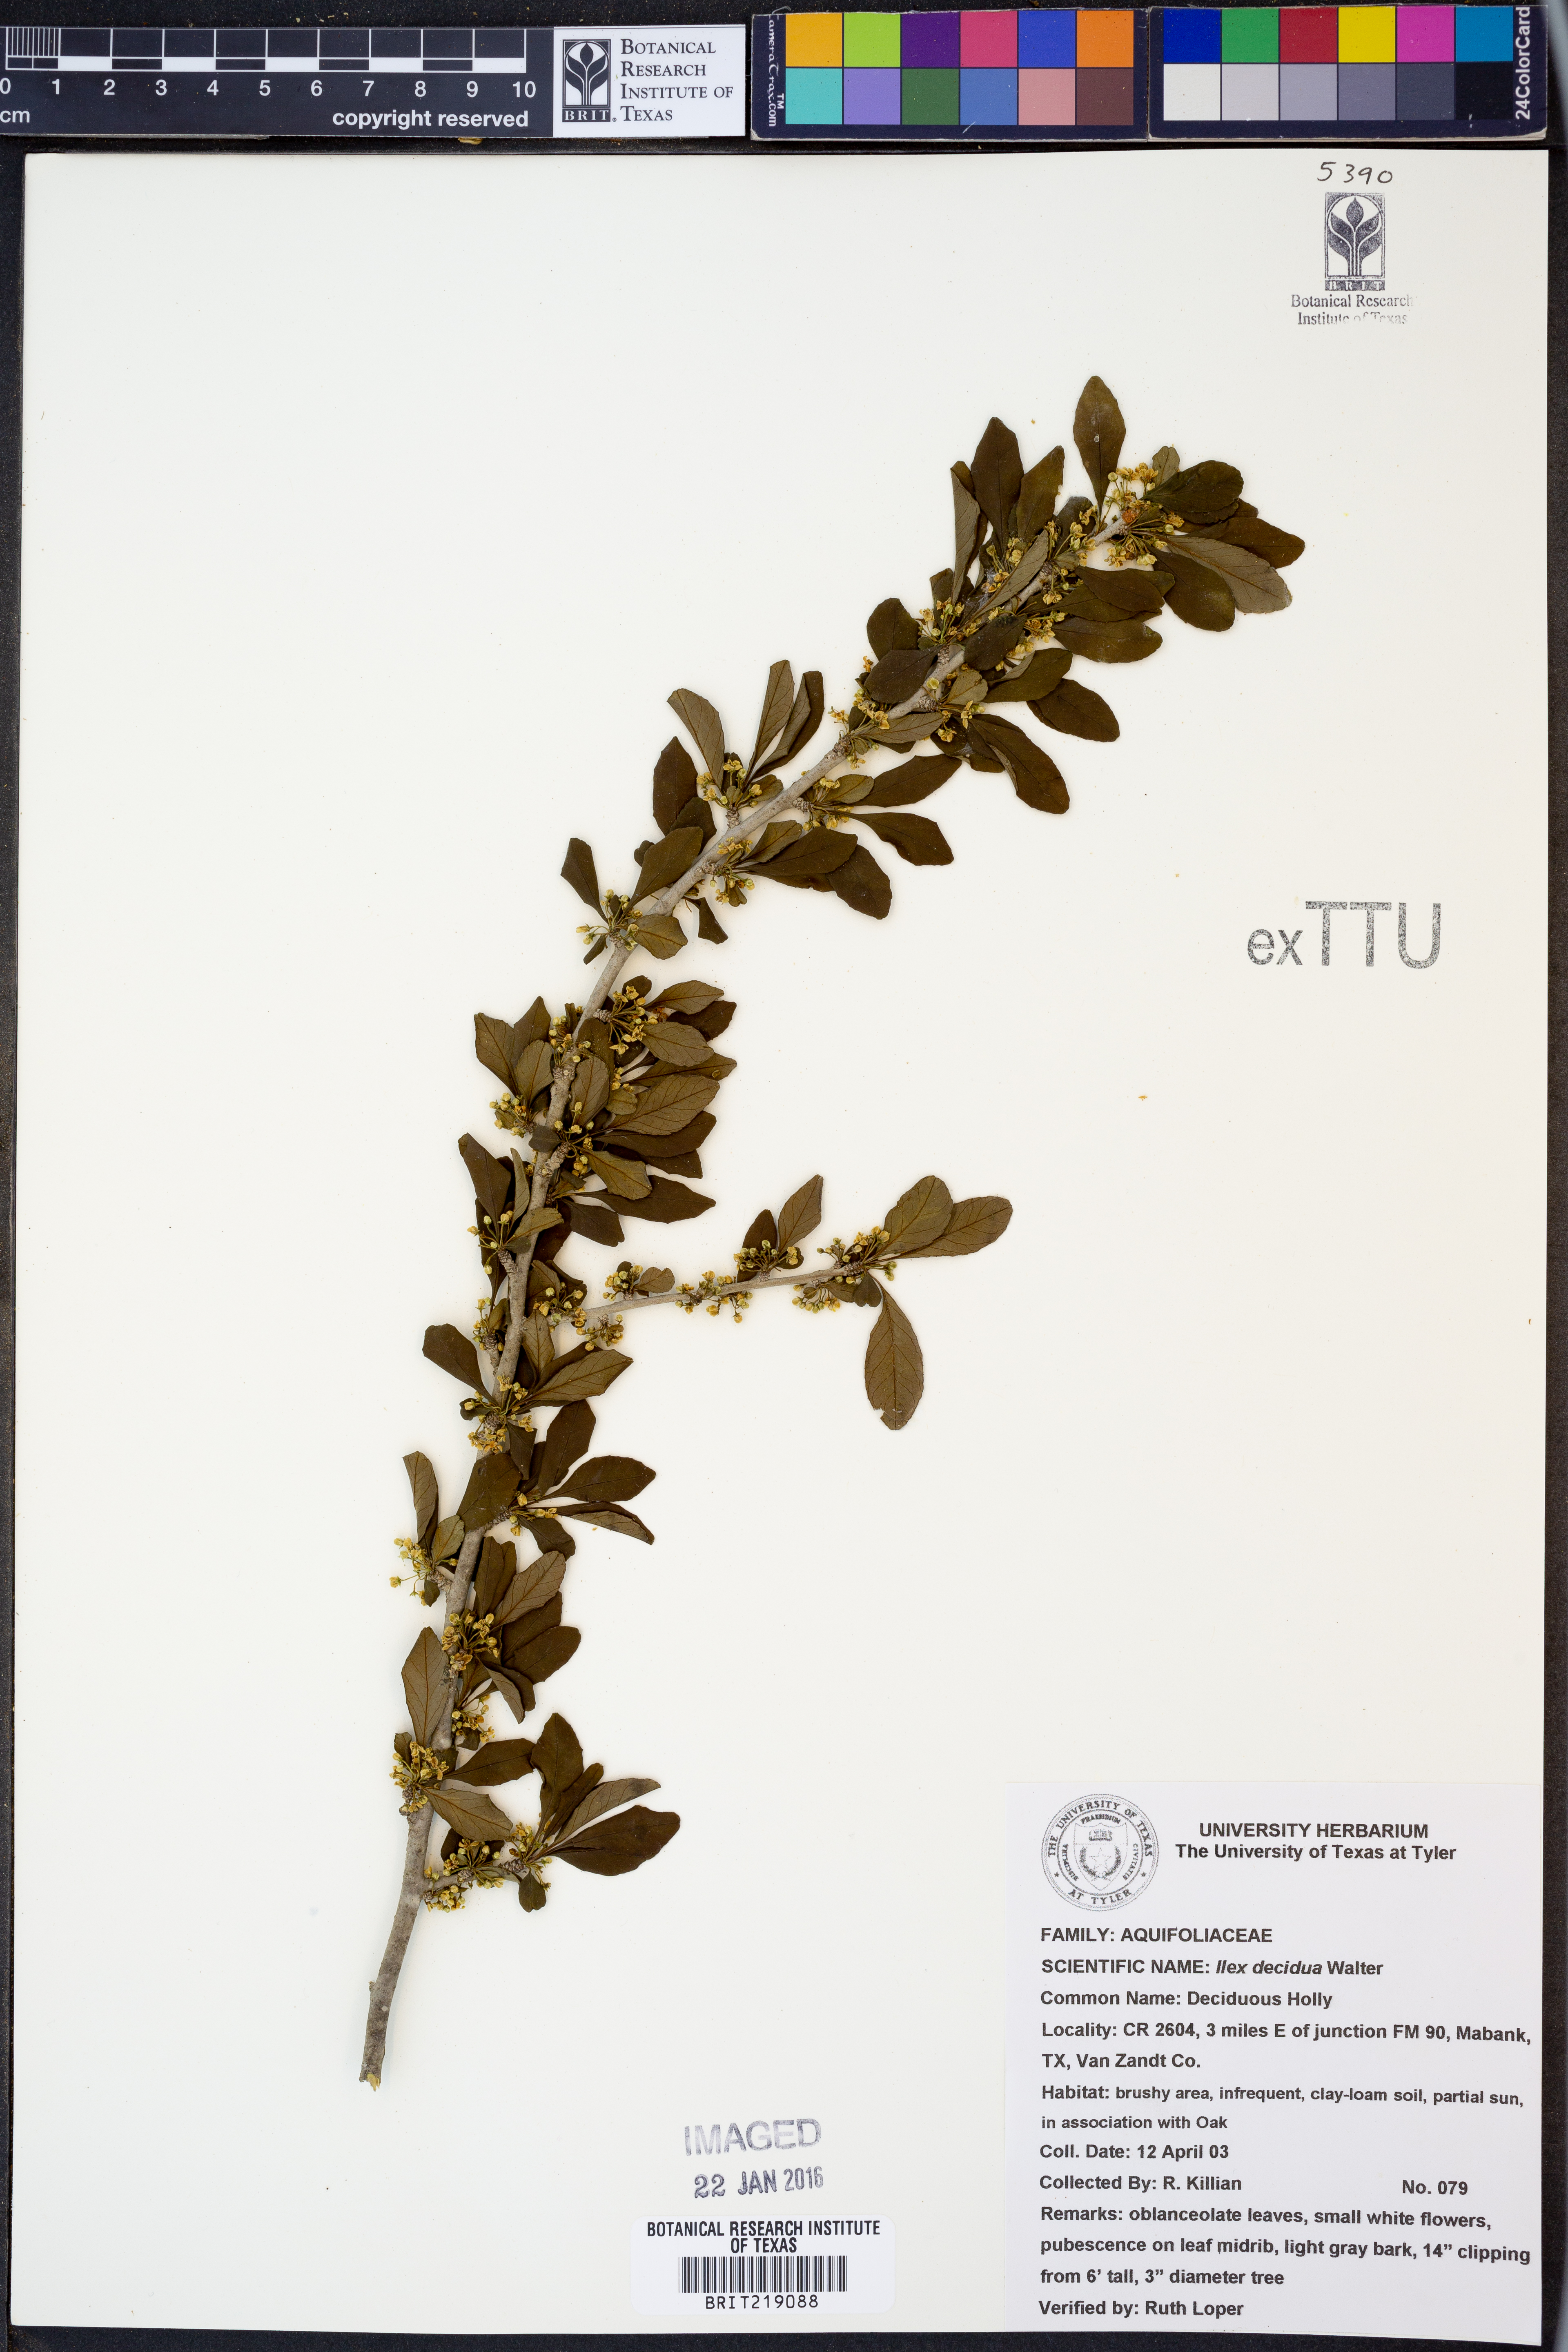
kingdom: Plantae
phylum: Tracheophyta
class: Magnoliopsida
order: Aquifoliales
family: Aquifoliaceae
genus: Ilex
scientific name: Ilex decidua
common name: Possum-haw
